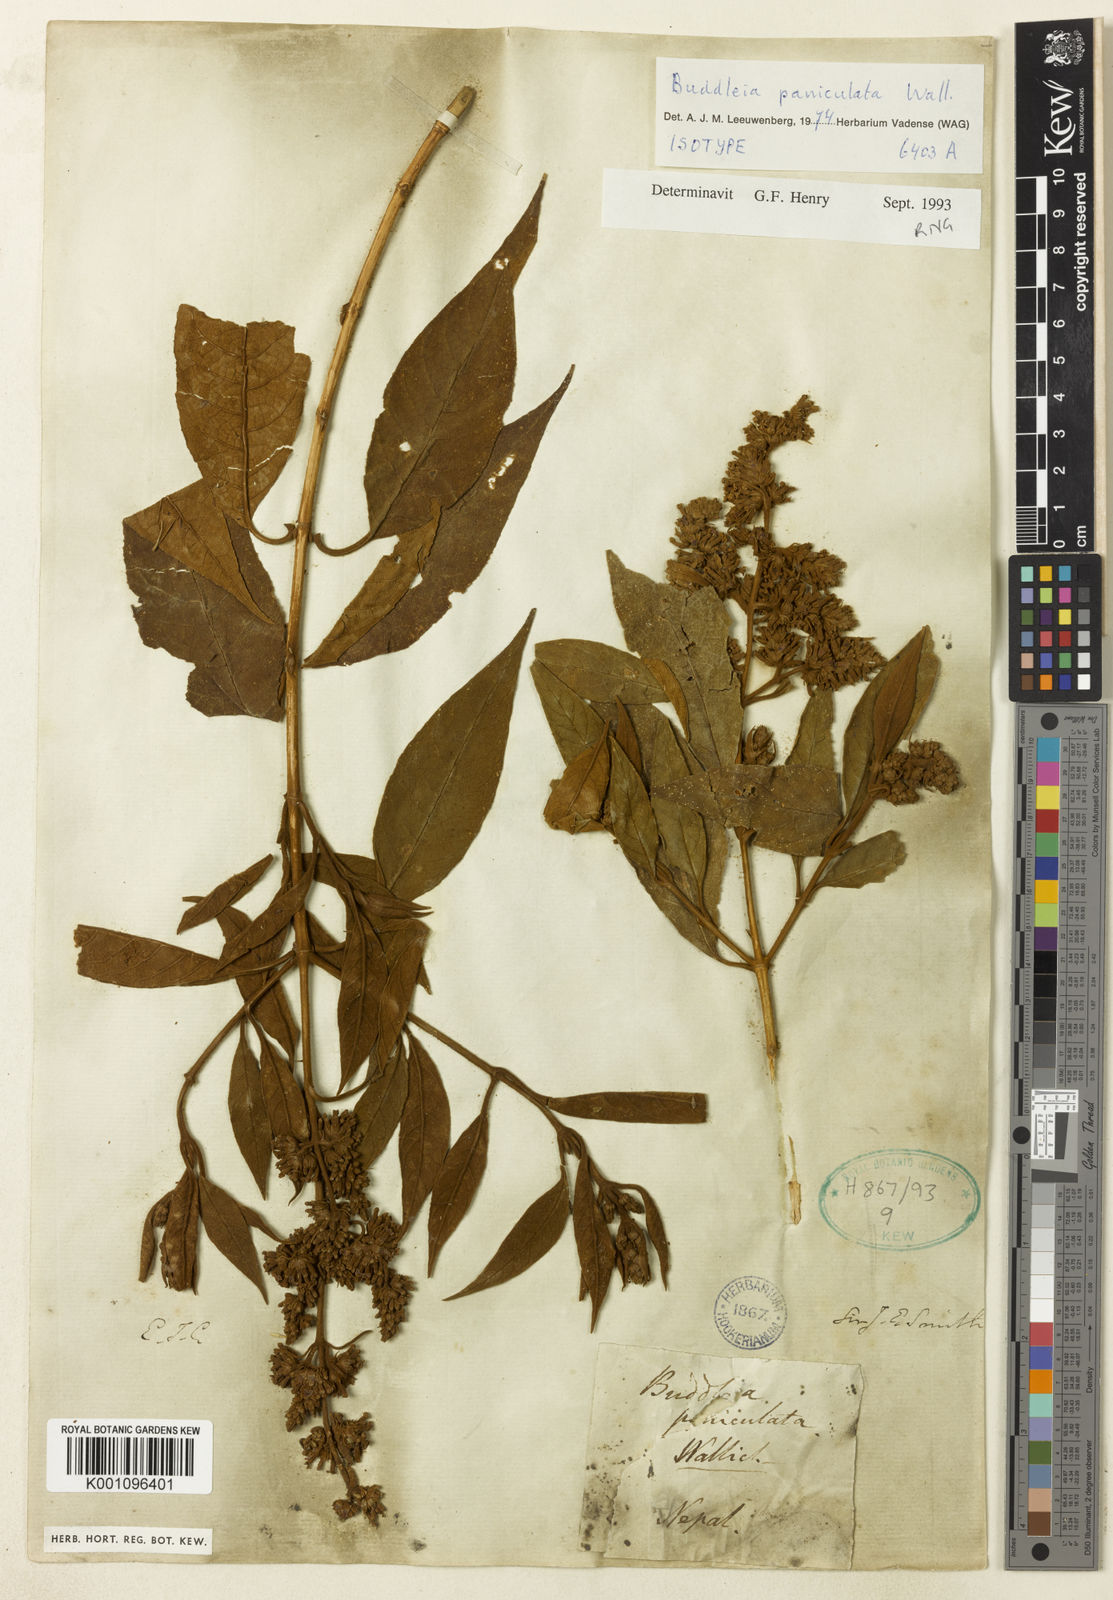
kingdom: Plantae
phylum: Tracheophyta
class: Magnoliopsida
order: Lamiales
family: Scrophulariaceae
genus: Buddleja
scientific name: Buddleja paniculata
